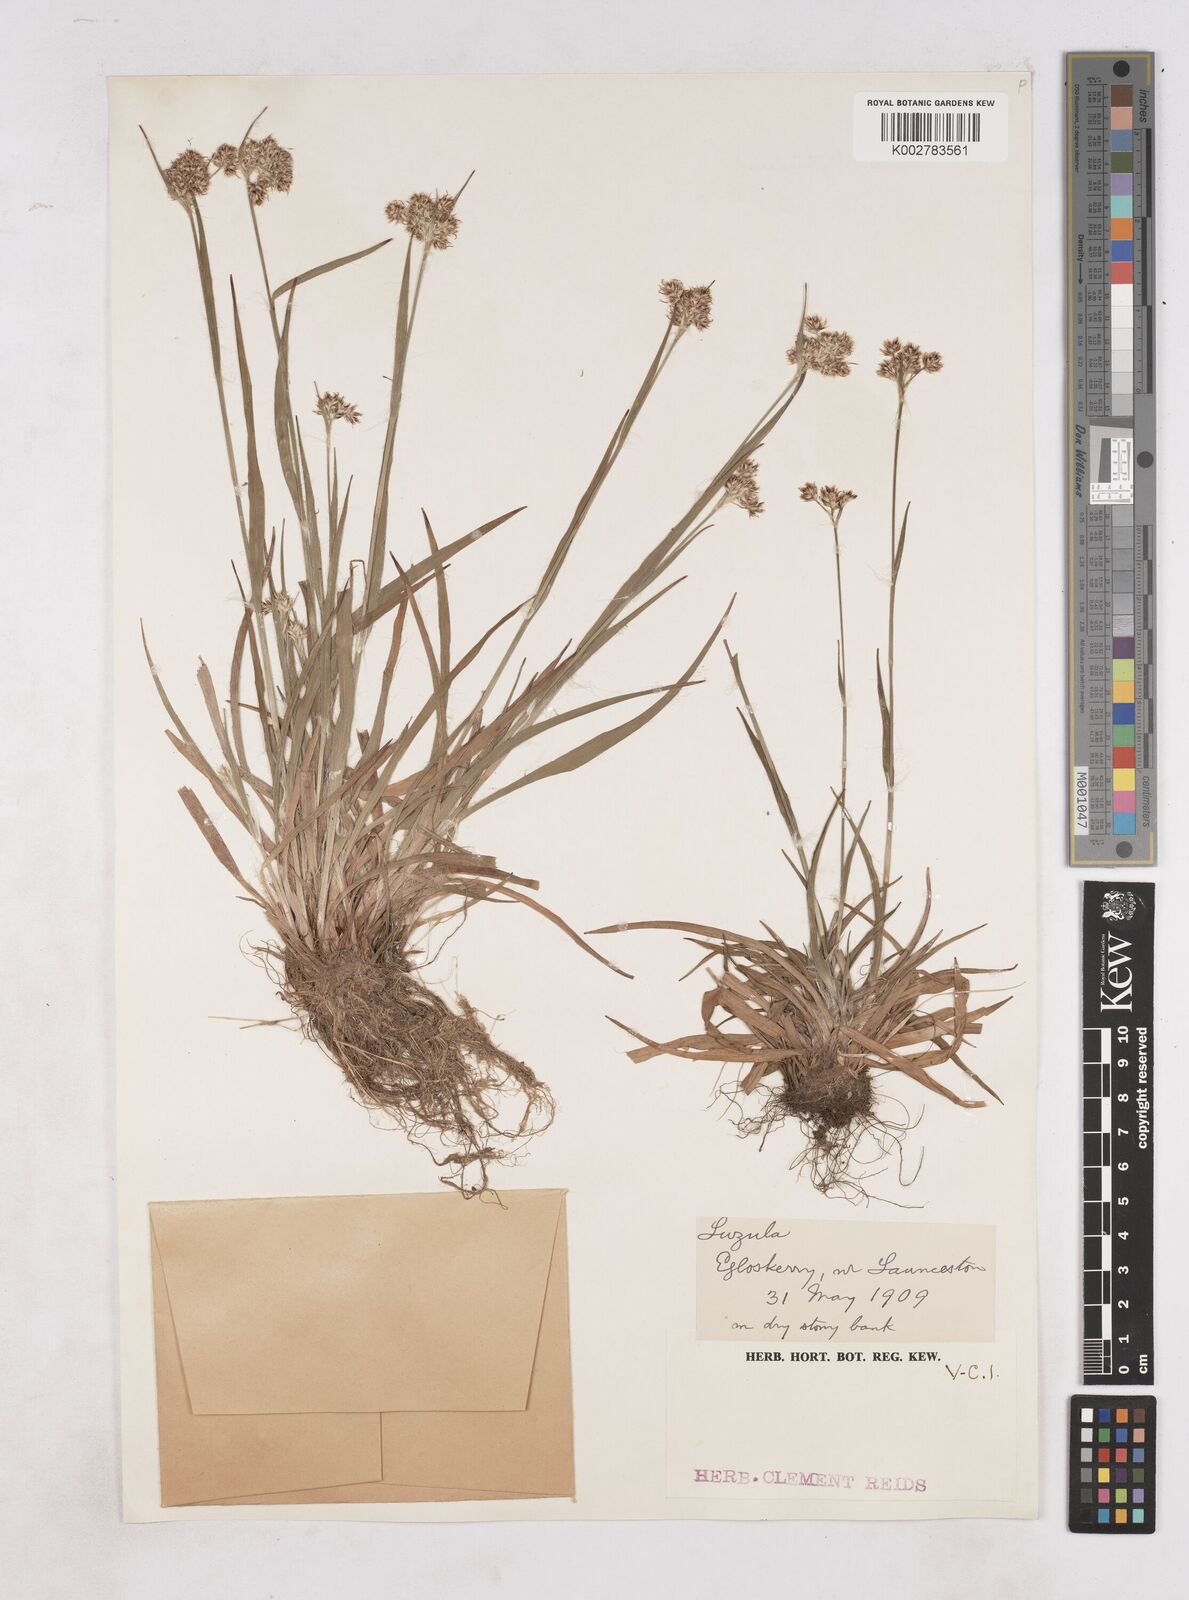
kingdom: Plantae
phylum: Tracheophyta
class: Liliopsida
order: Poales
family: Juncaceae
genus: Luzula
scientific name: Luzula
